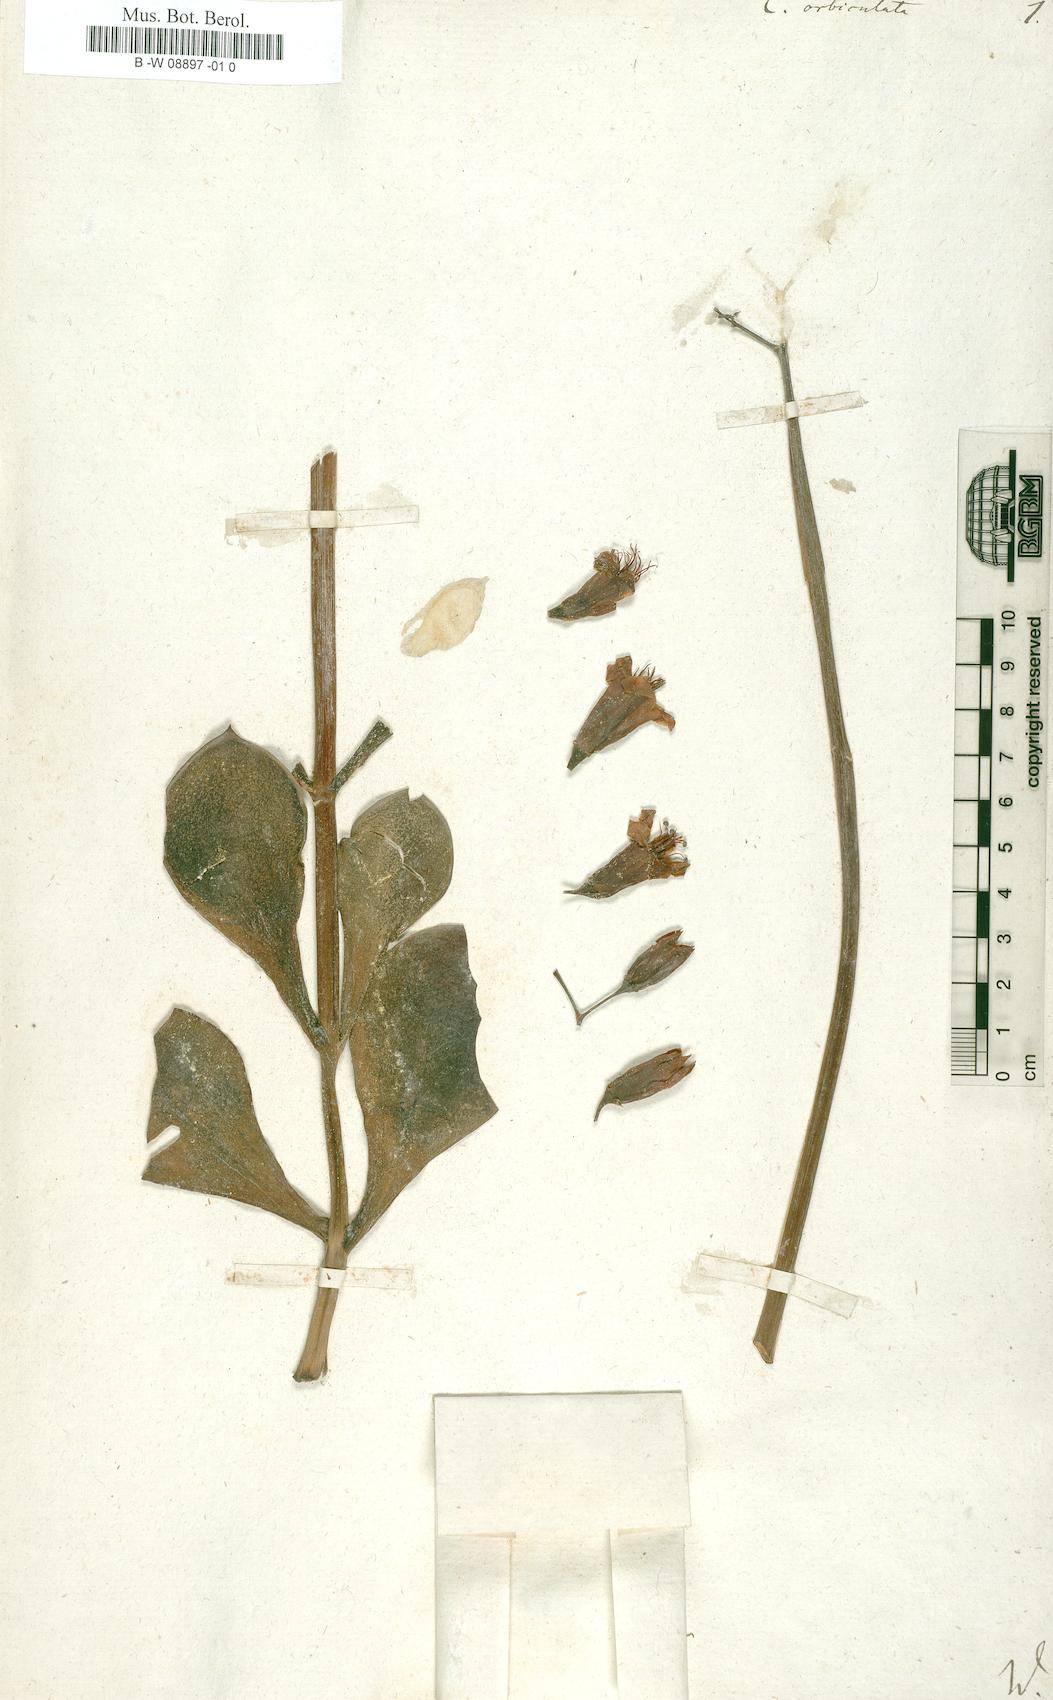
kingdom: Plantae
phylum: Tracheophyta
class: Magnoliopsida
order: Saxifragales
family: Crassulaceae
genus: Cotyledon
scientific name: Cotyledon orbiculata
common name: Pig's ear
